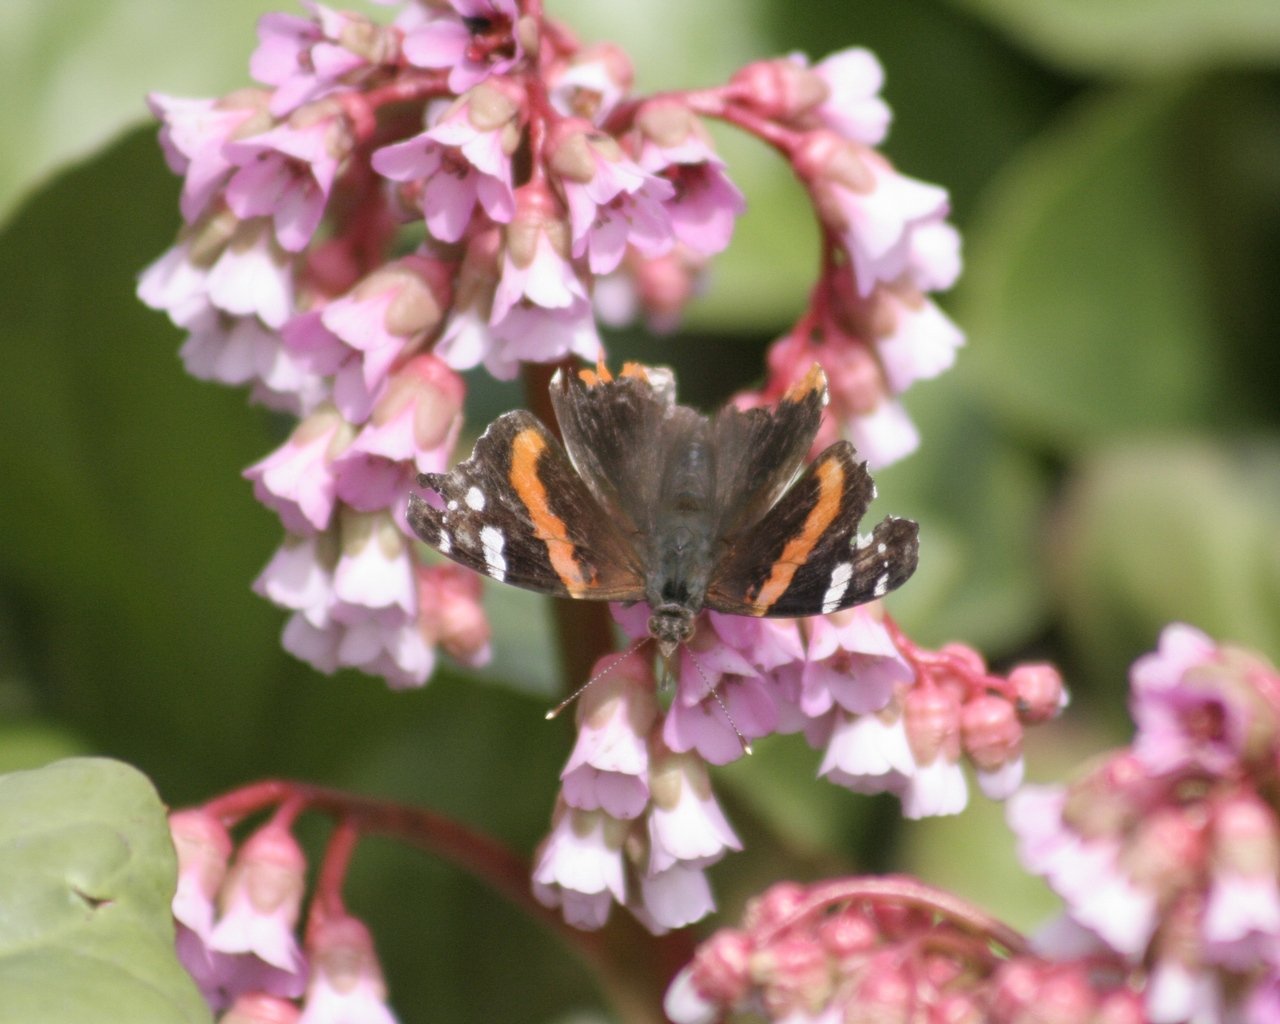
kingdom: Animalia
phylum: Arthropoda
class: Insecta
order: Lepidoptera
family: Nymphalidae
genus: Vanessa
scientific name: Vanessa atalanta
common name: Red Admiral
